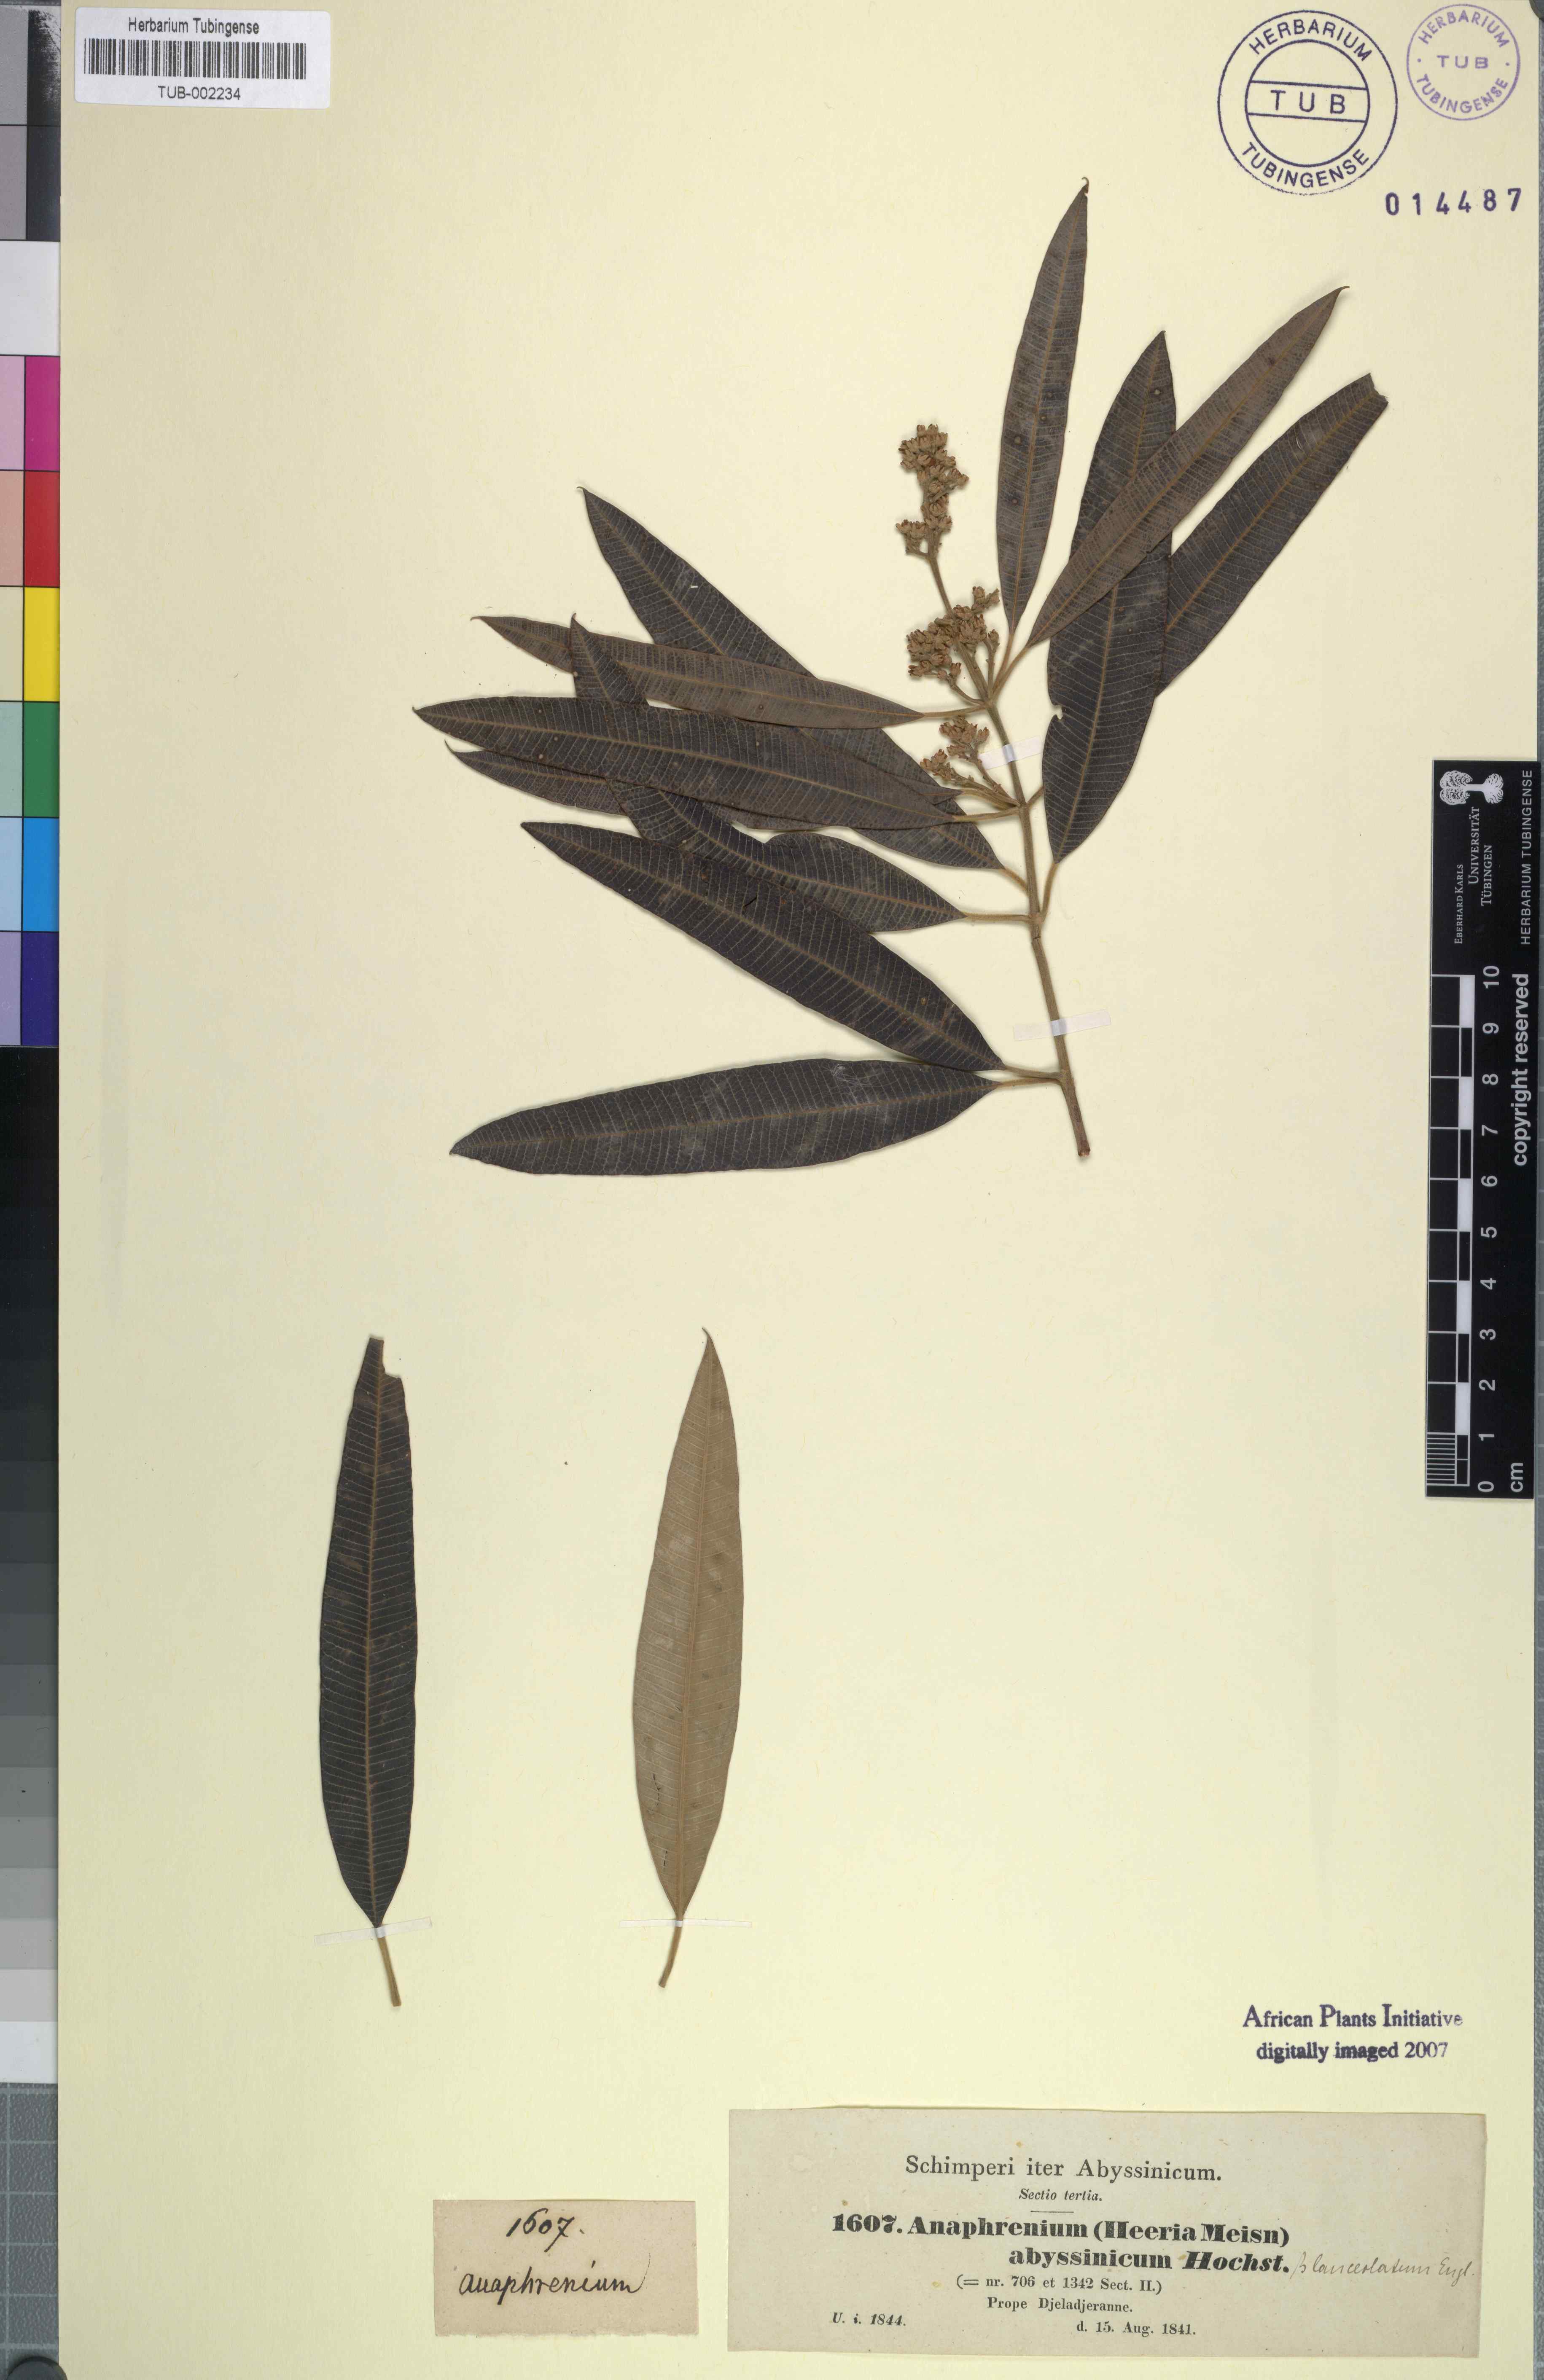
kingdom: Plantae
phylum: Tracheophyta
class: Magnoliopsida
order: Sapindales
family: Anacardiaceae
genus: Ozoroa
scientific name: Ozoroa insignis
